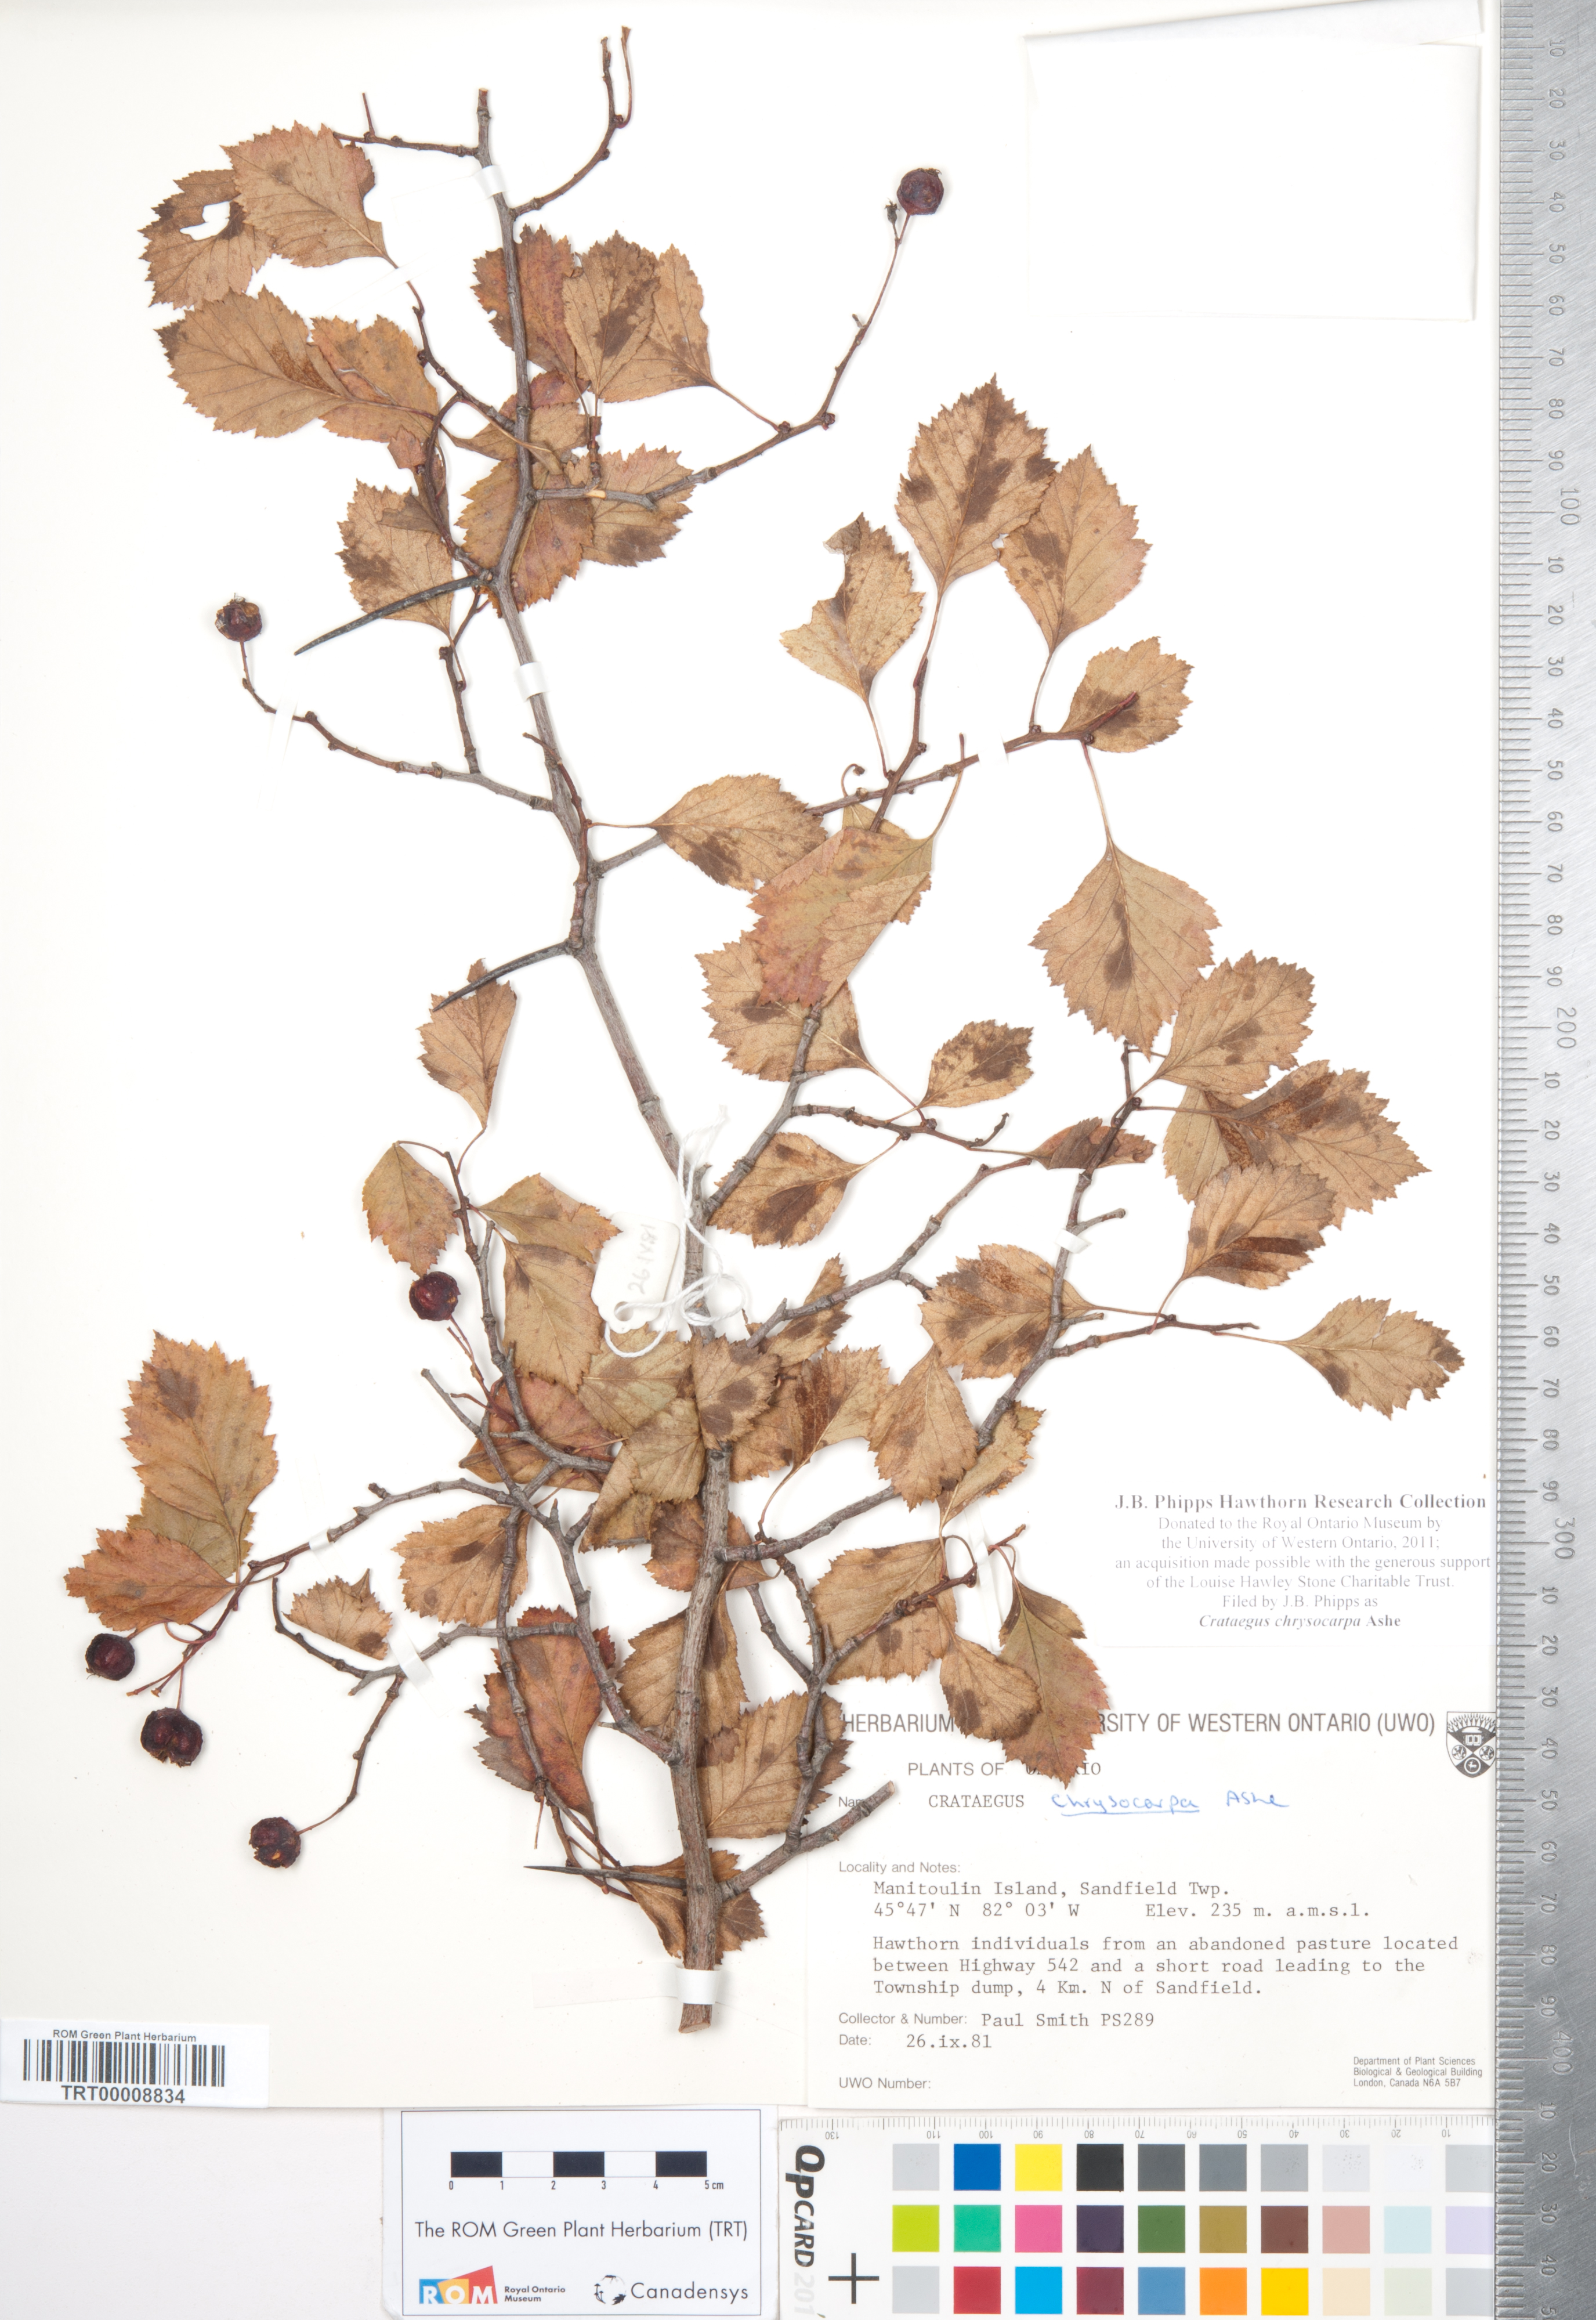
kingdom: Plantae
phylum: Tracheophyta
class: Magnoliopsida
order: Rosales
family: Rosaceae
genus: Crataegus
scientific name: Crataegus chrysocarpa
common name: Fire-berry hawthorn
